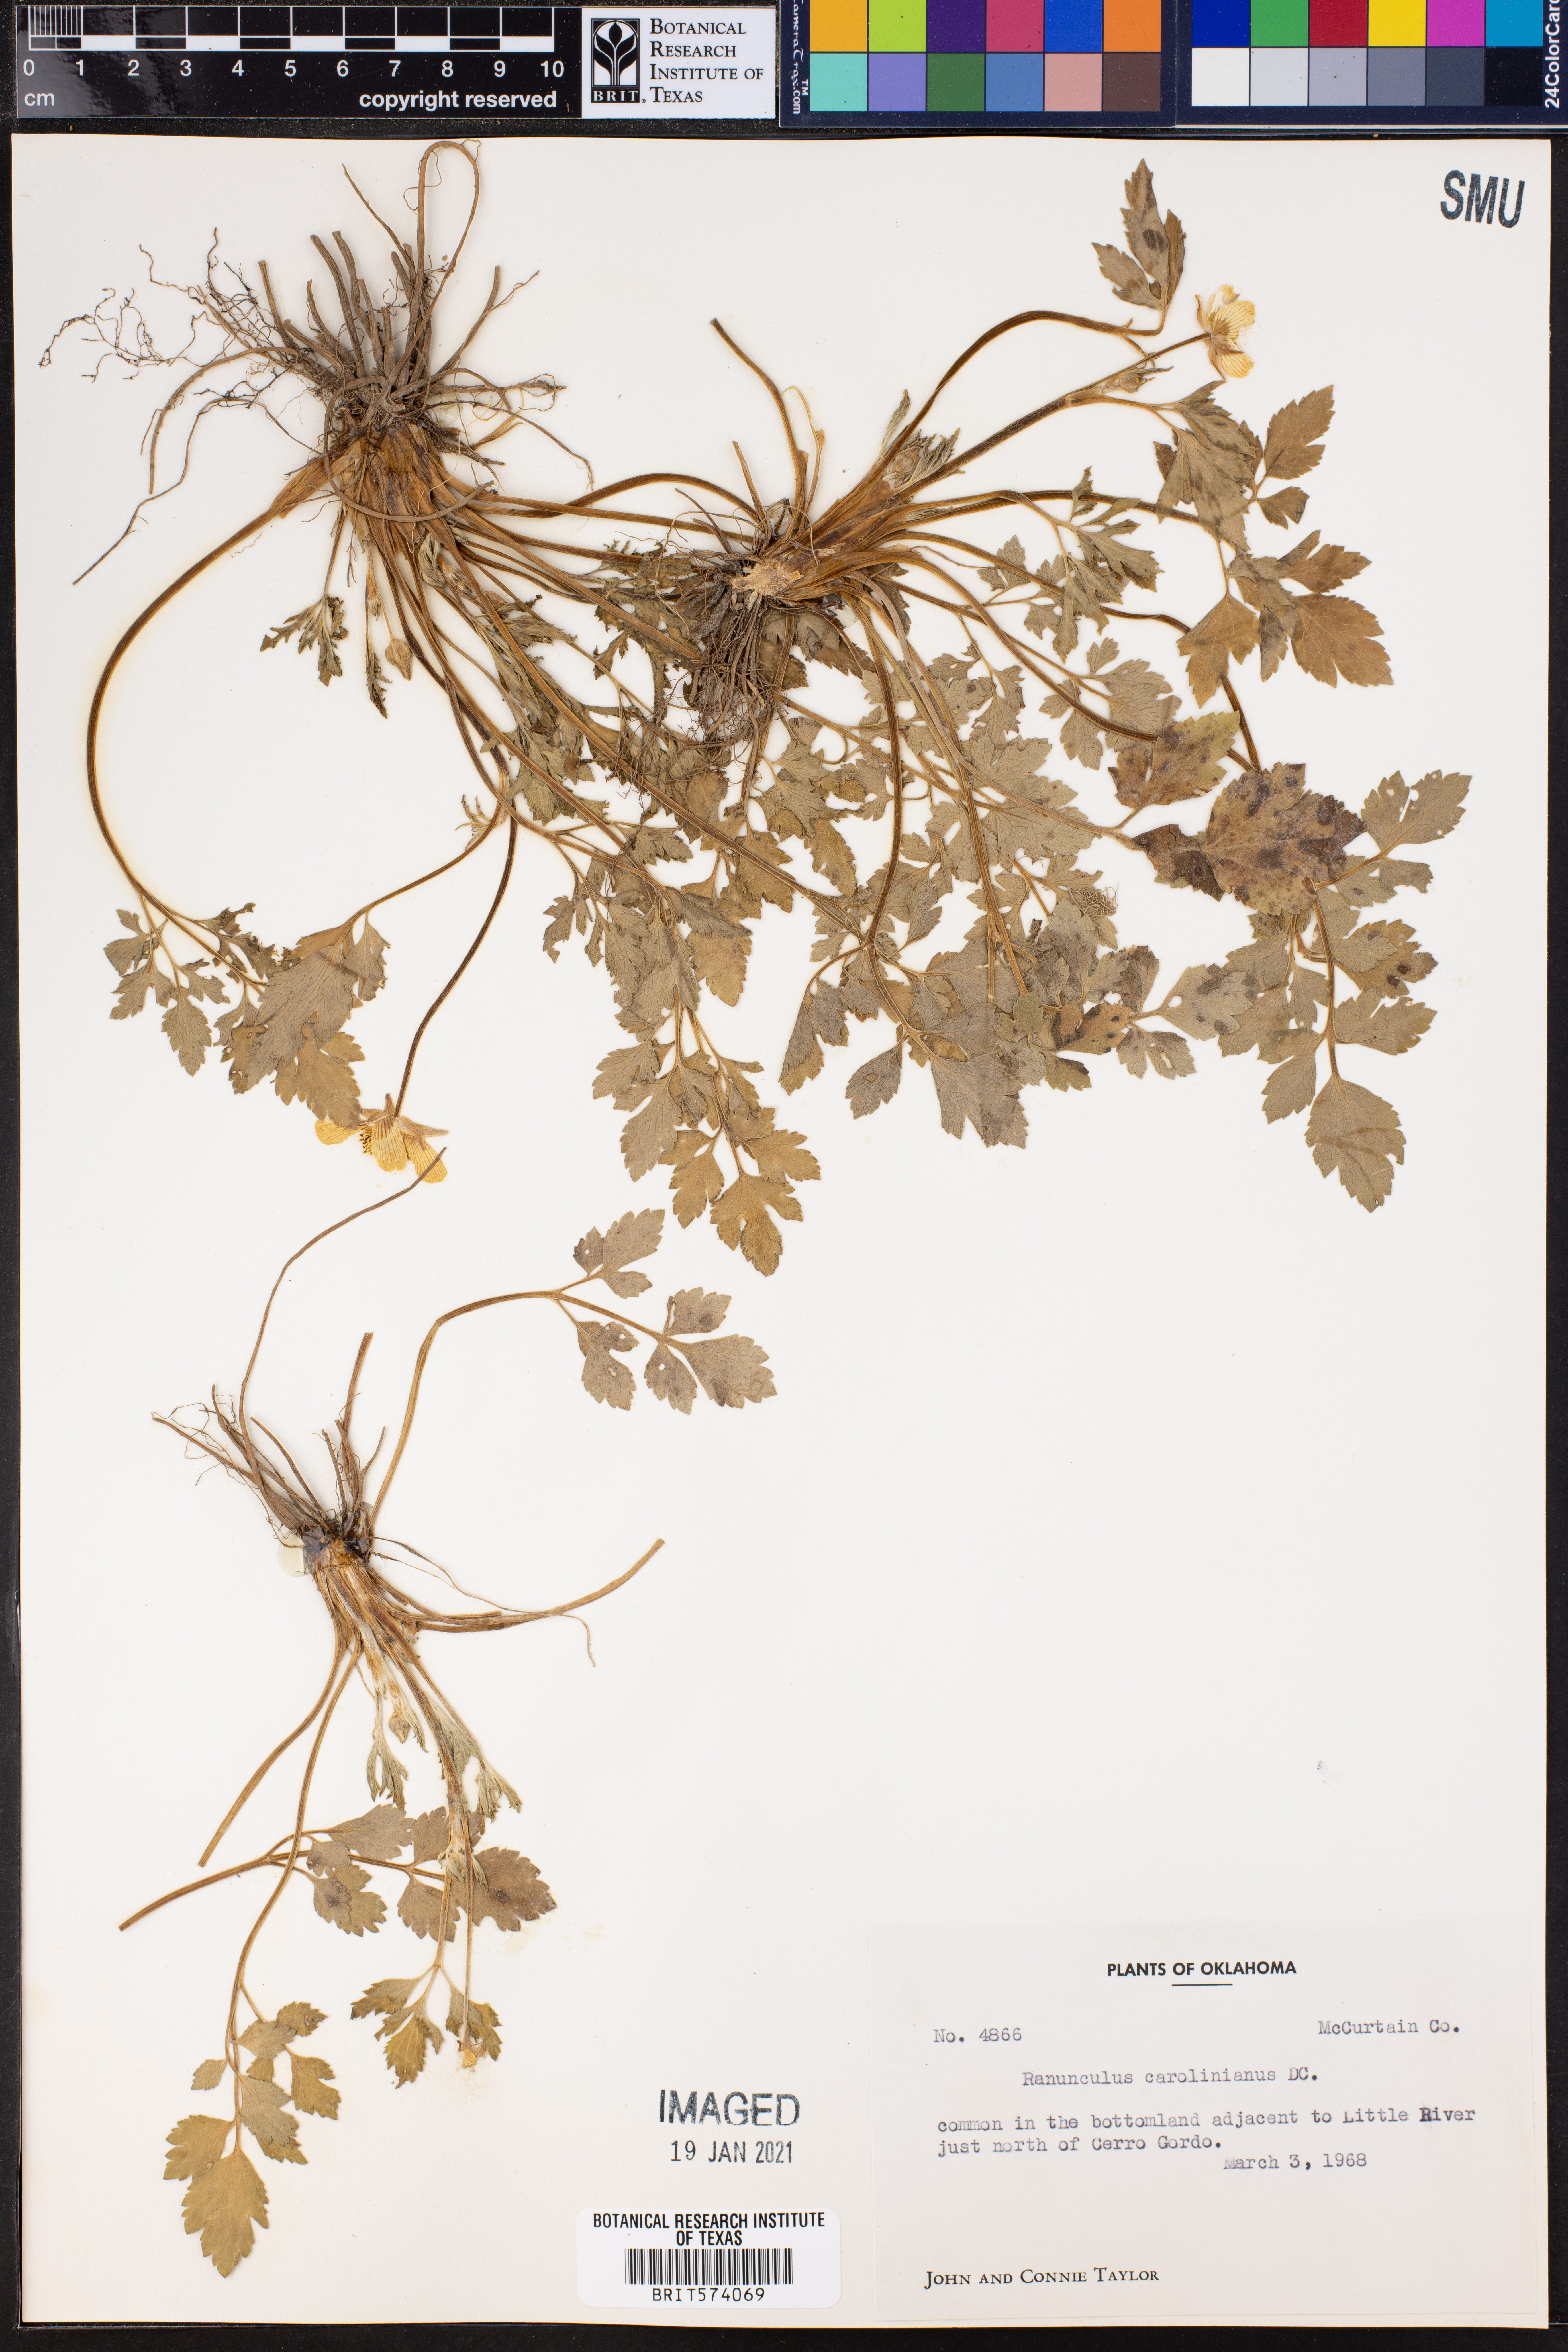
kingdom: Plantae
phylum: Tracheophyta
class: Magnoliopsida
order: Ranunculales
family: Ranunculaceae
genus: Ranunculus
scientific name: Ranunculus hispidus
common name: Bristly buttercup
